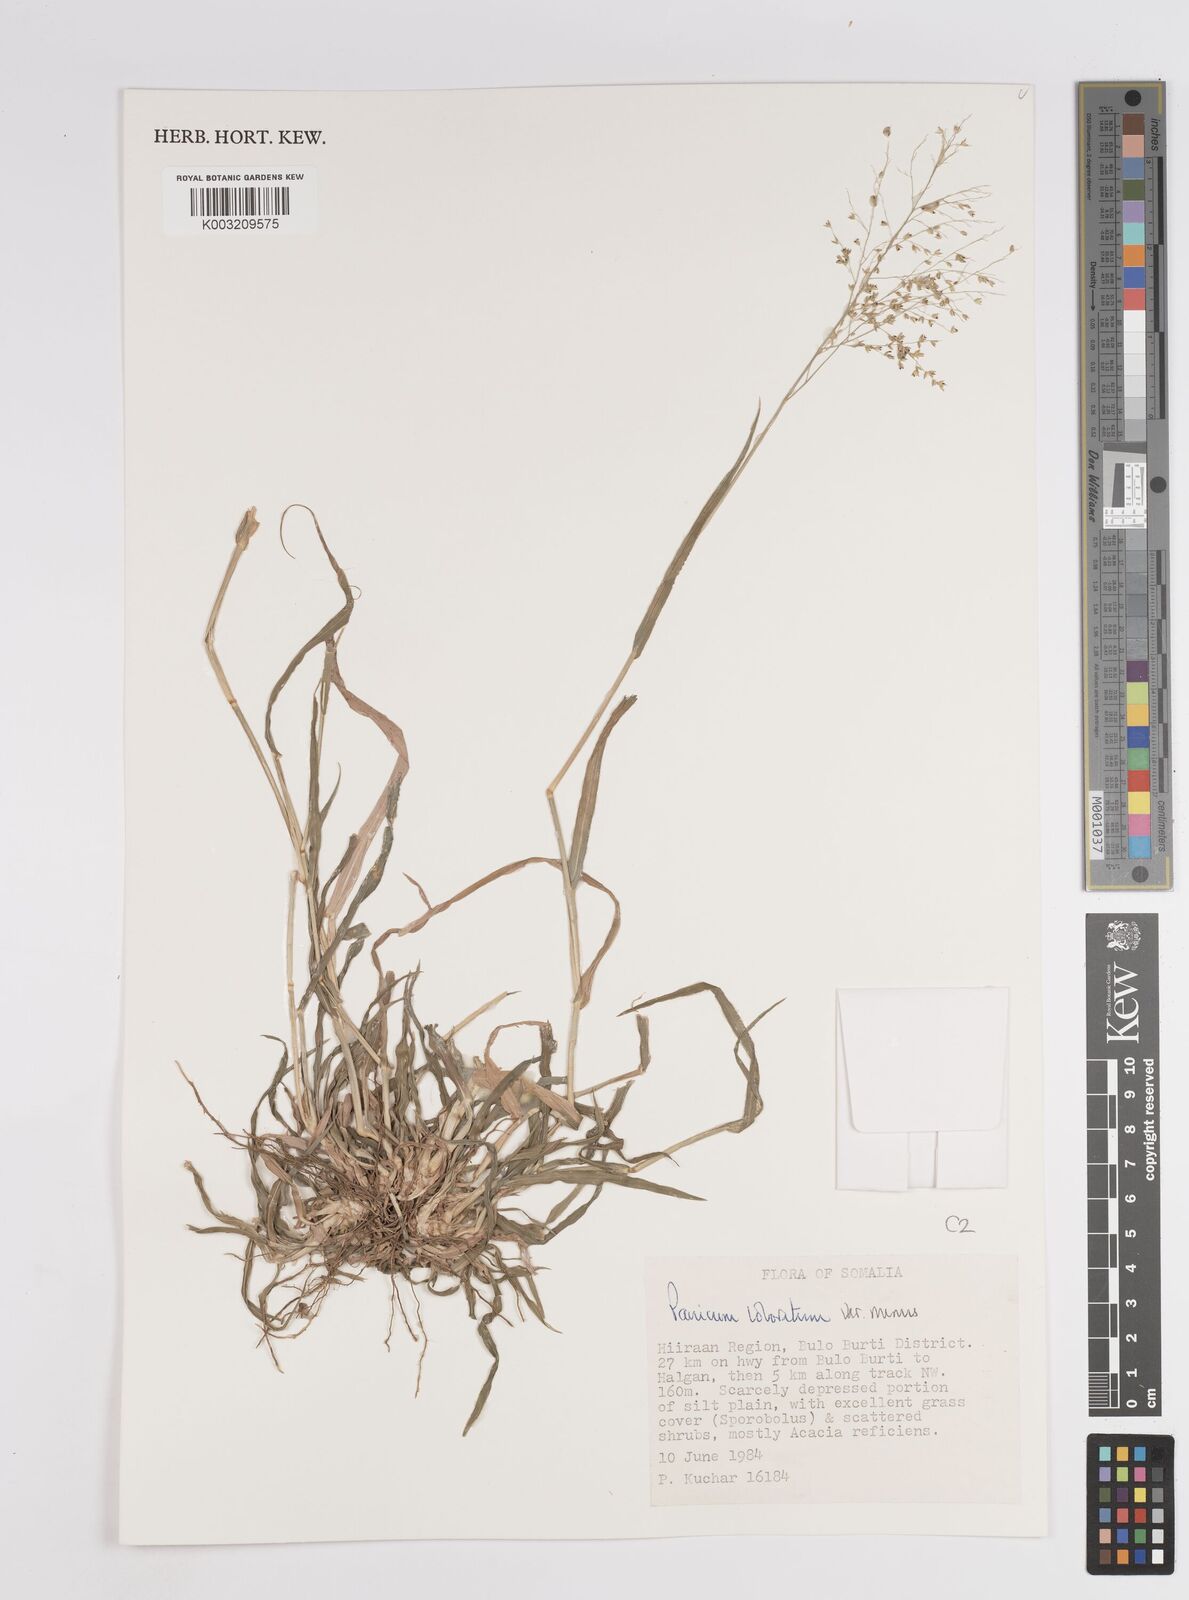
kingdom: Plantae
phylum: Tracheophyta
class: Liliopsida
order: Poales
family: Poaceae
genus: Panicum
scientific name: Panicum coloratum
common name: Kleingrass
